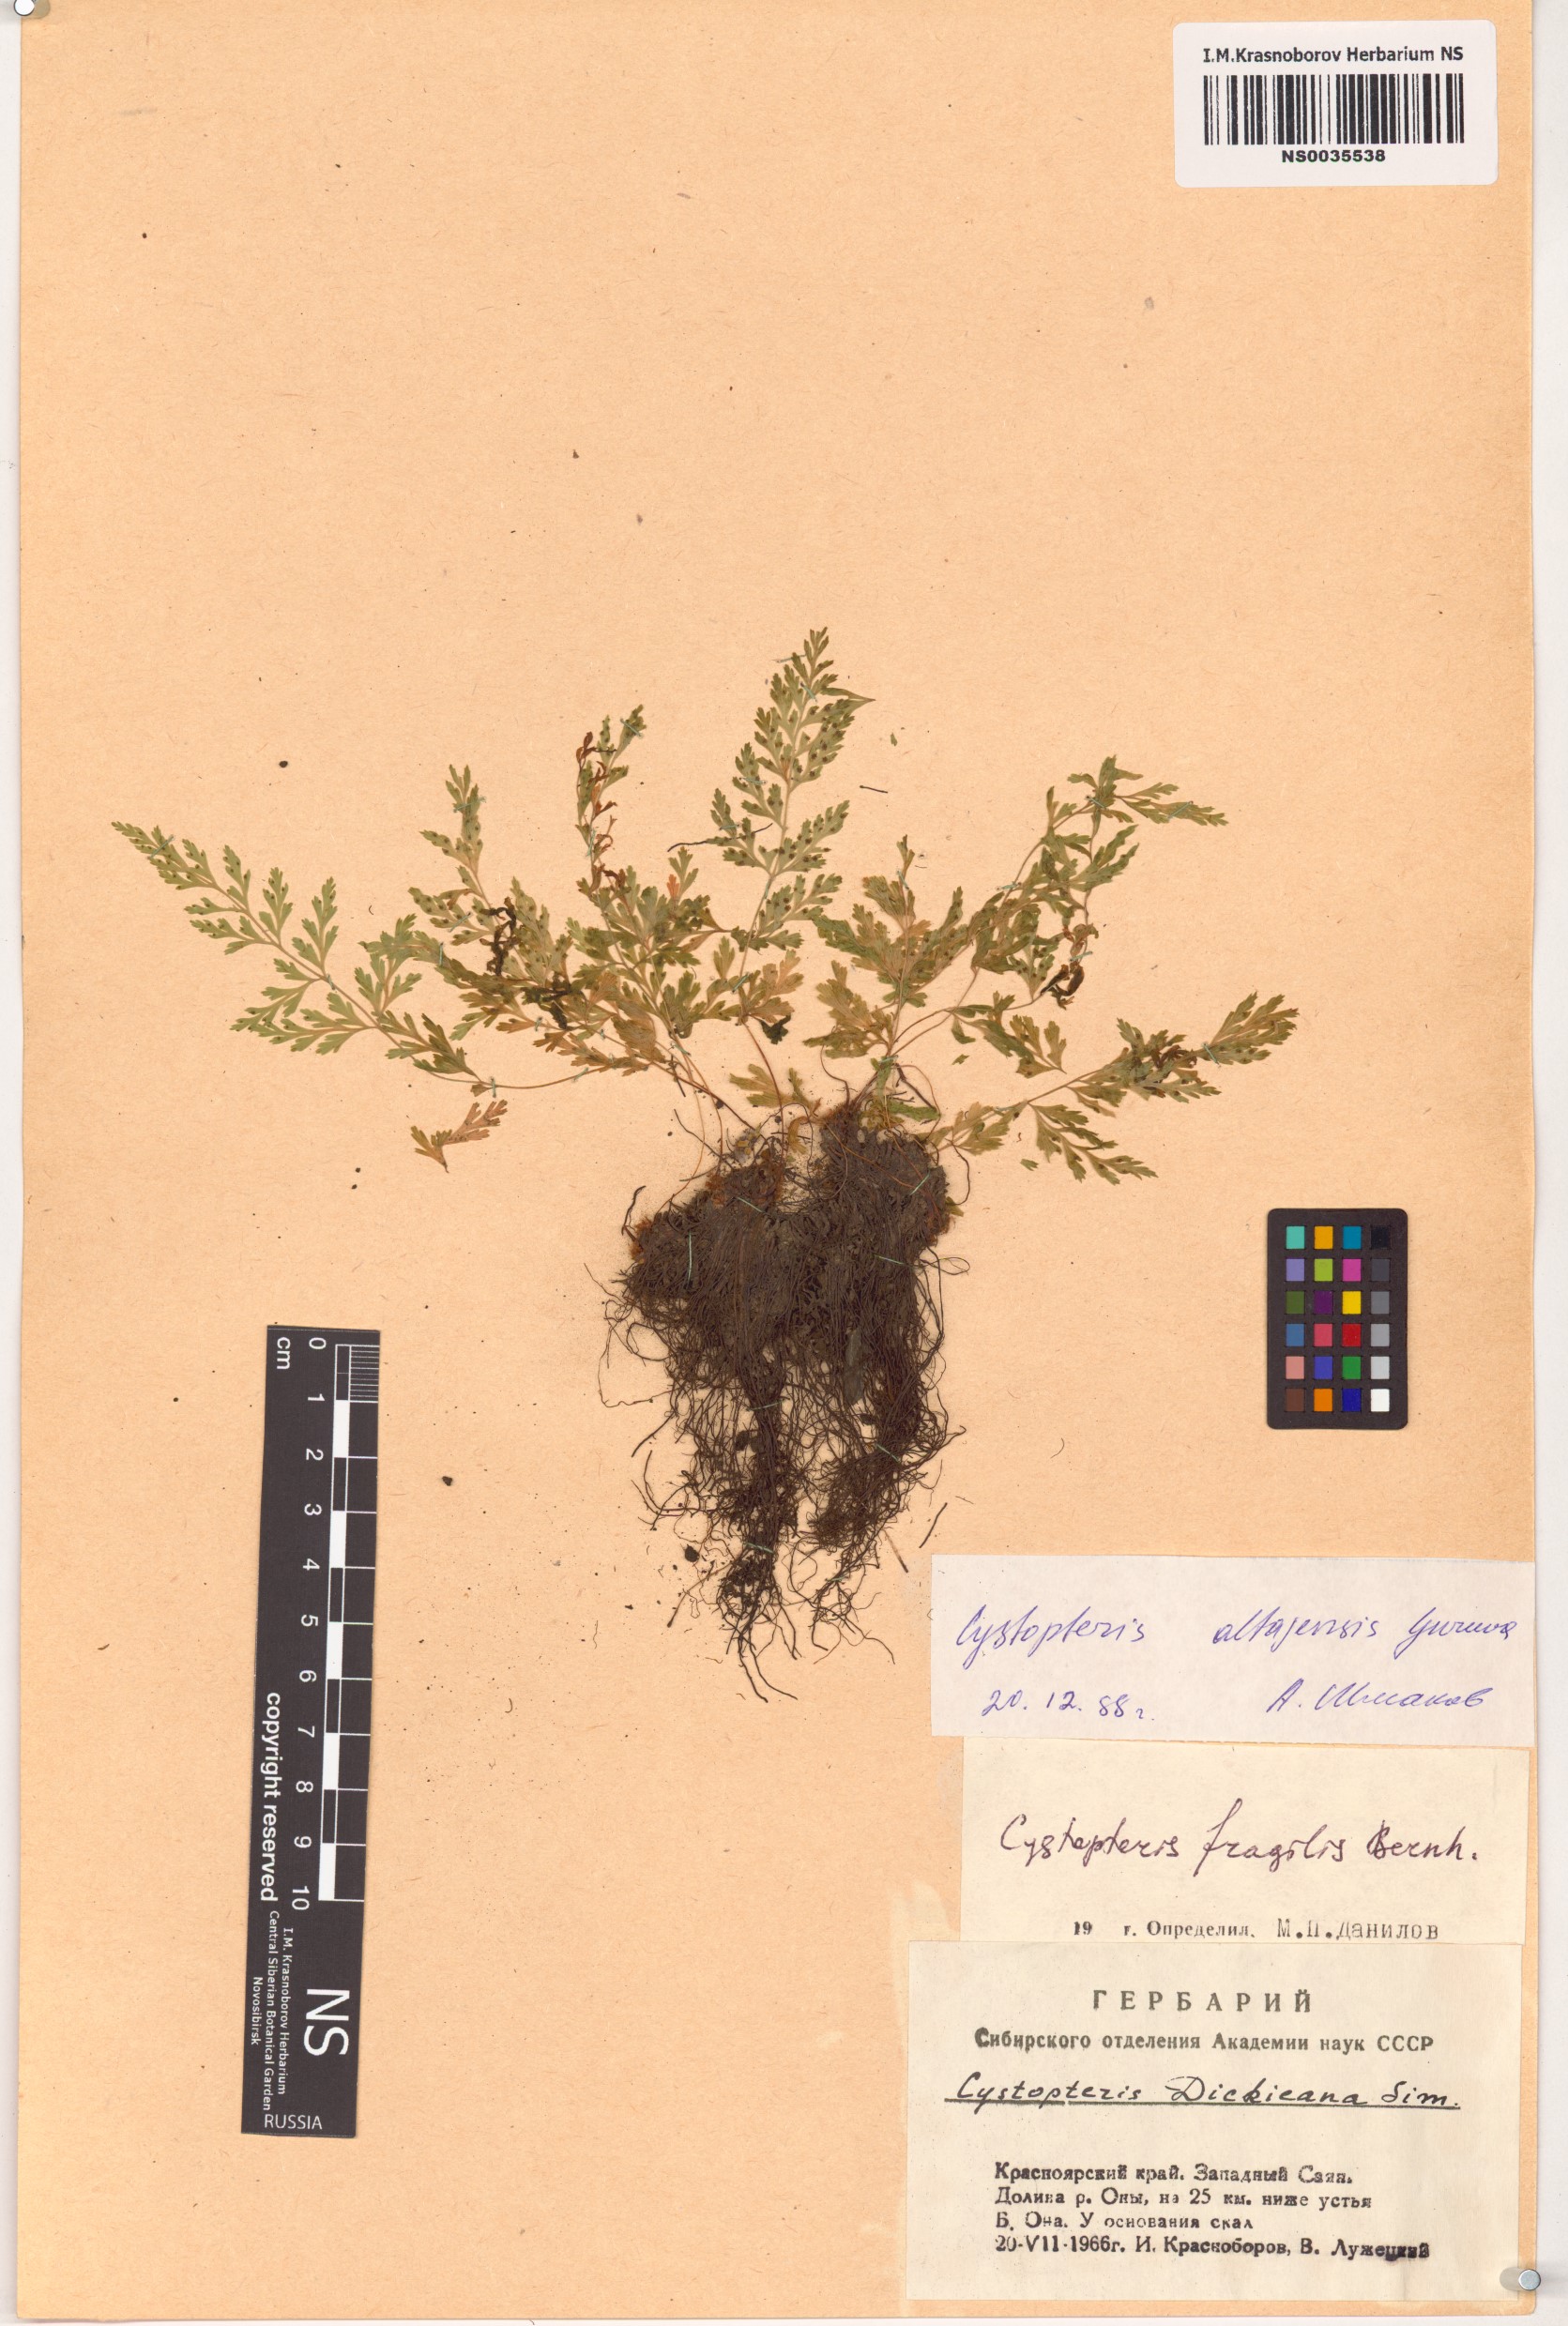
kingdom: Plantae
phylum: Tracheophyta
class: Polypodiopsida
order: Polypodiales
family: Cystopteridaceae
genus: Cystopteris
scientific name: Cystopteris diaphana
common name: Greenish bladder-fern
